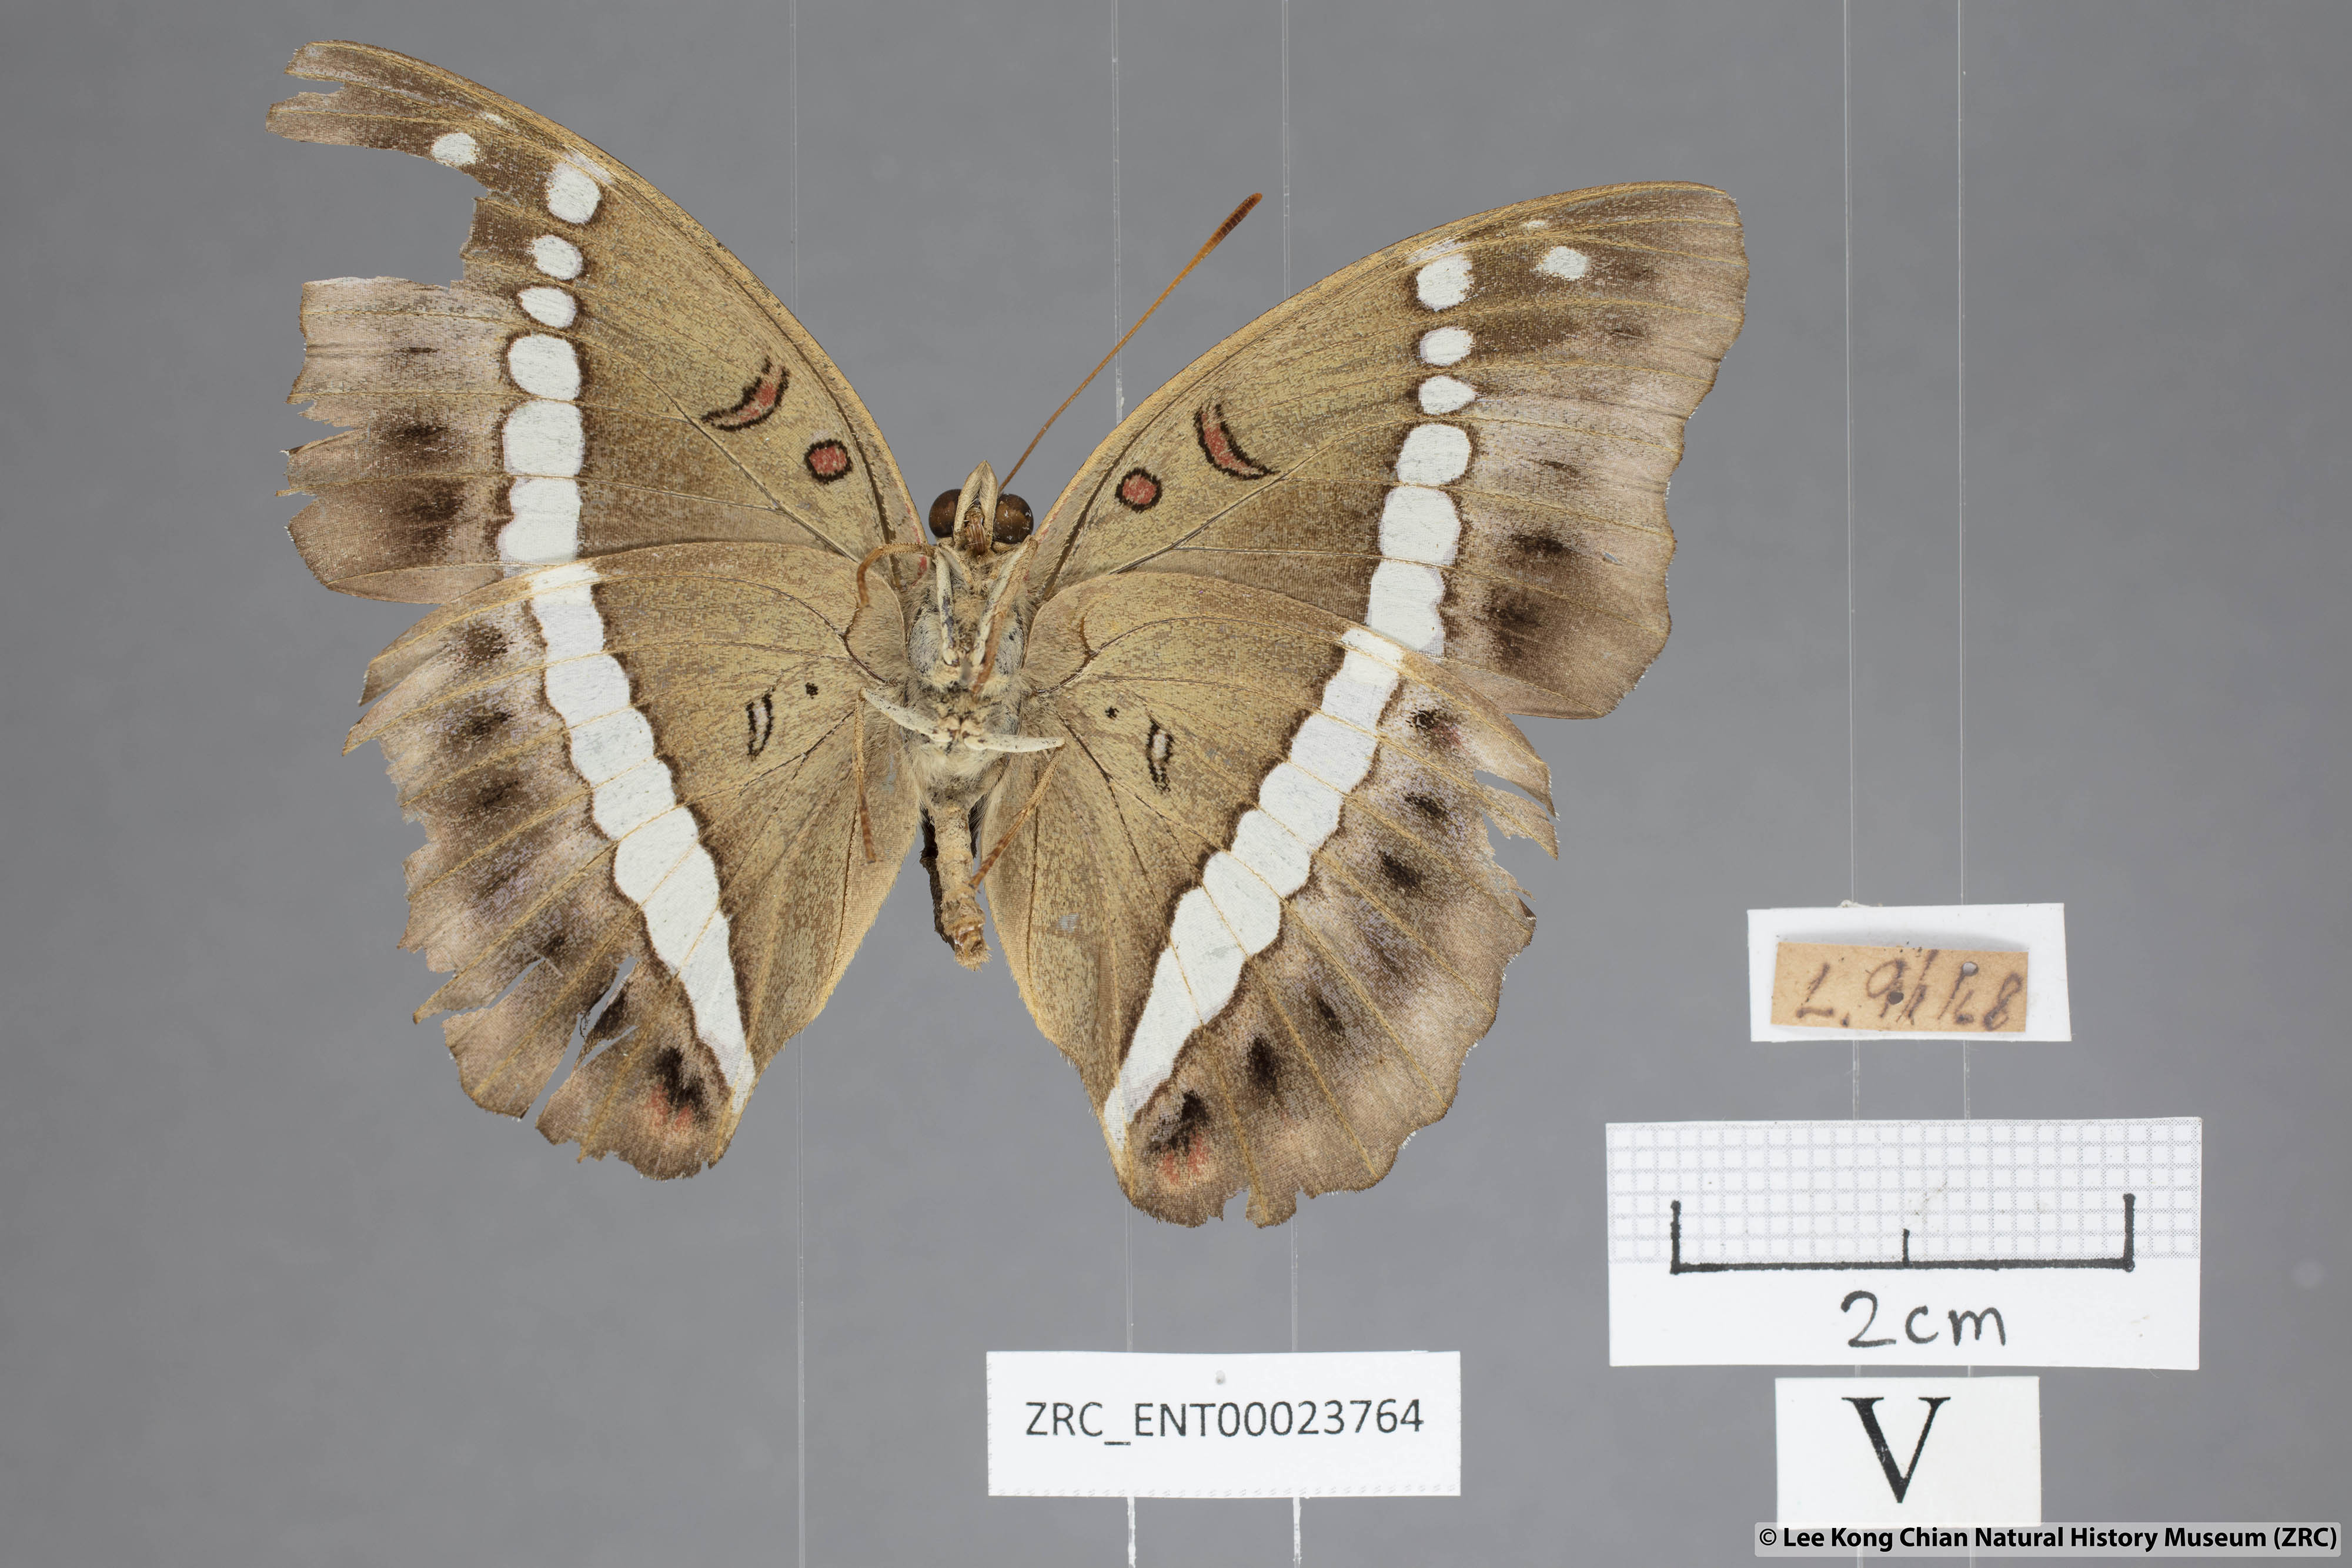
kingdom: Animalia
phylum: Arthropoda
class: Insecta
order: Lepidoptera
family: Nymphalidae
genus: Euthalia
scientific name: Euthalia Bassarona recta
